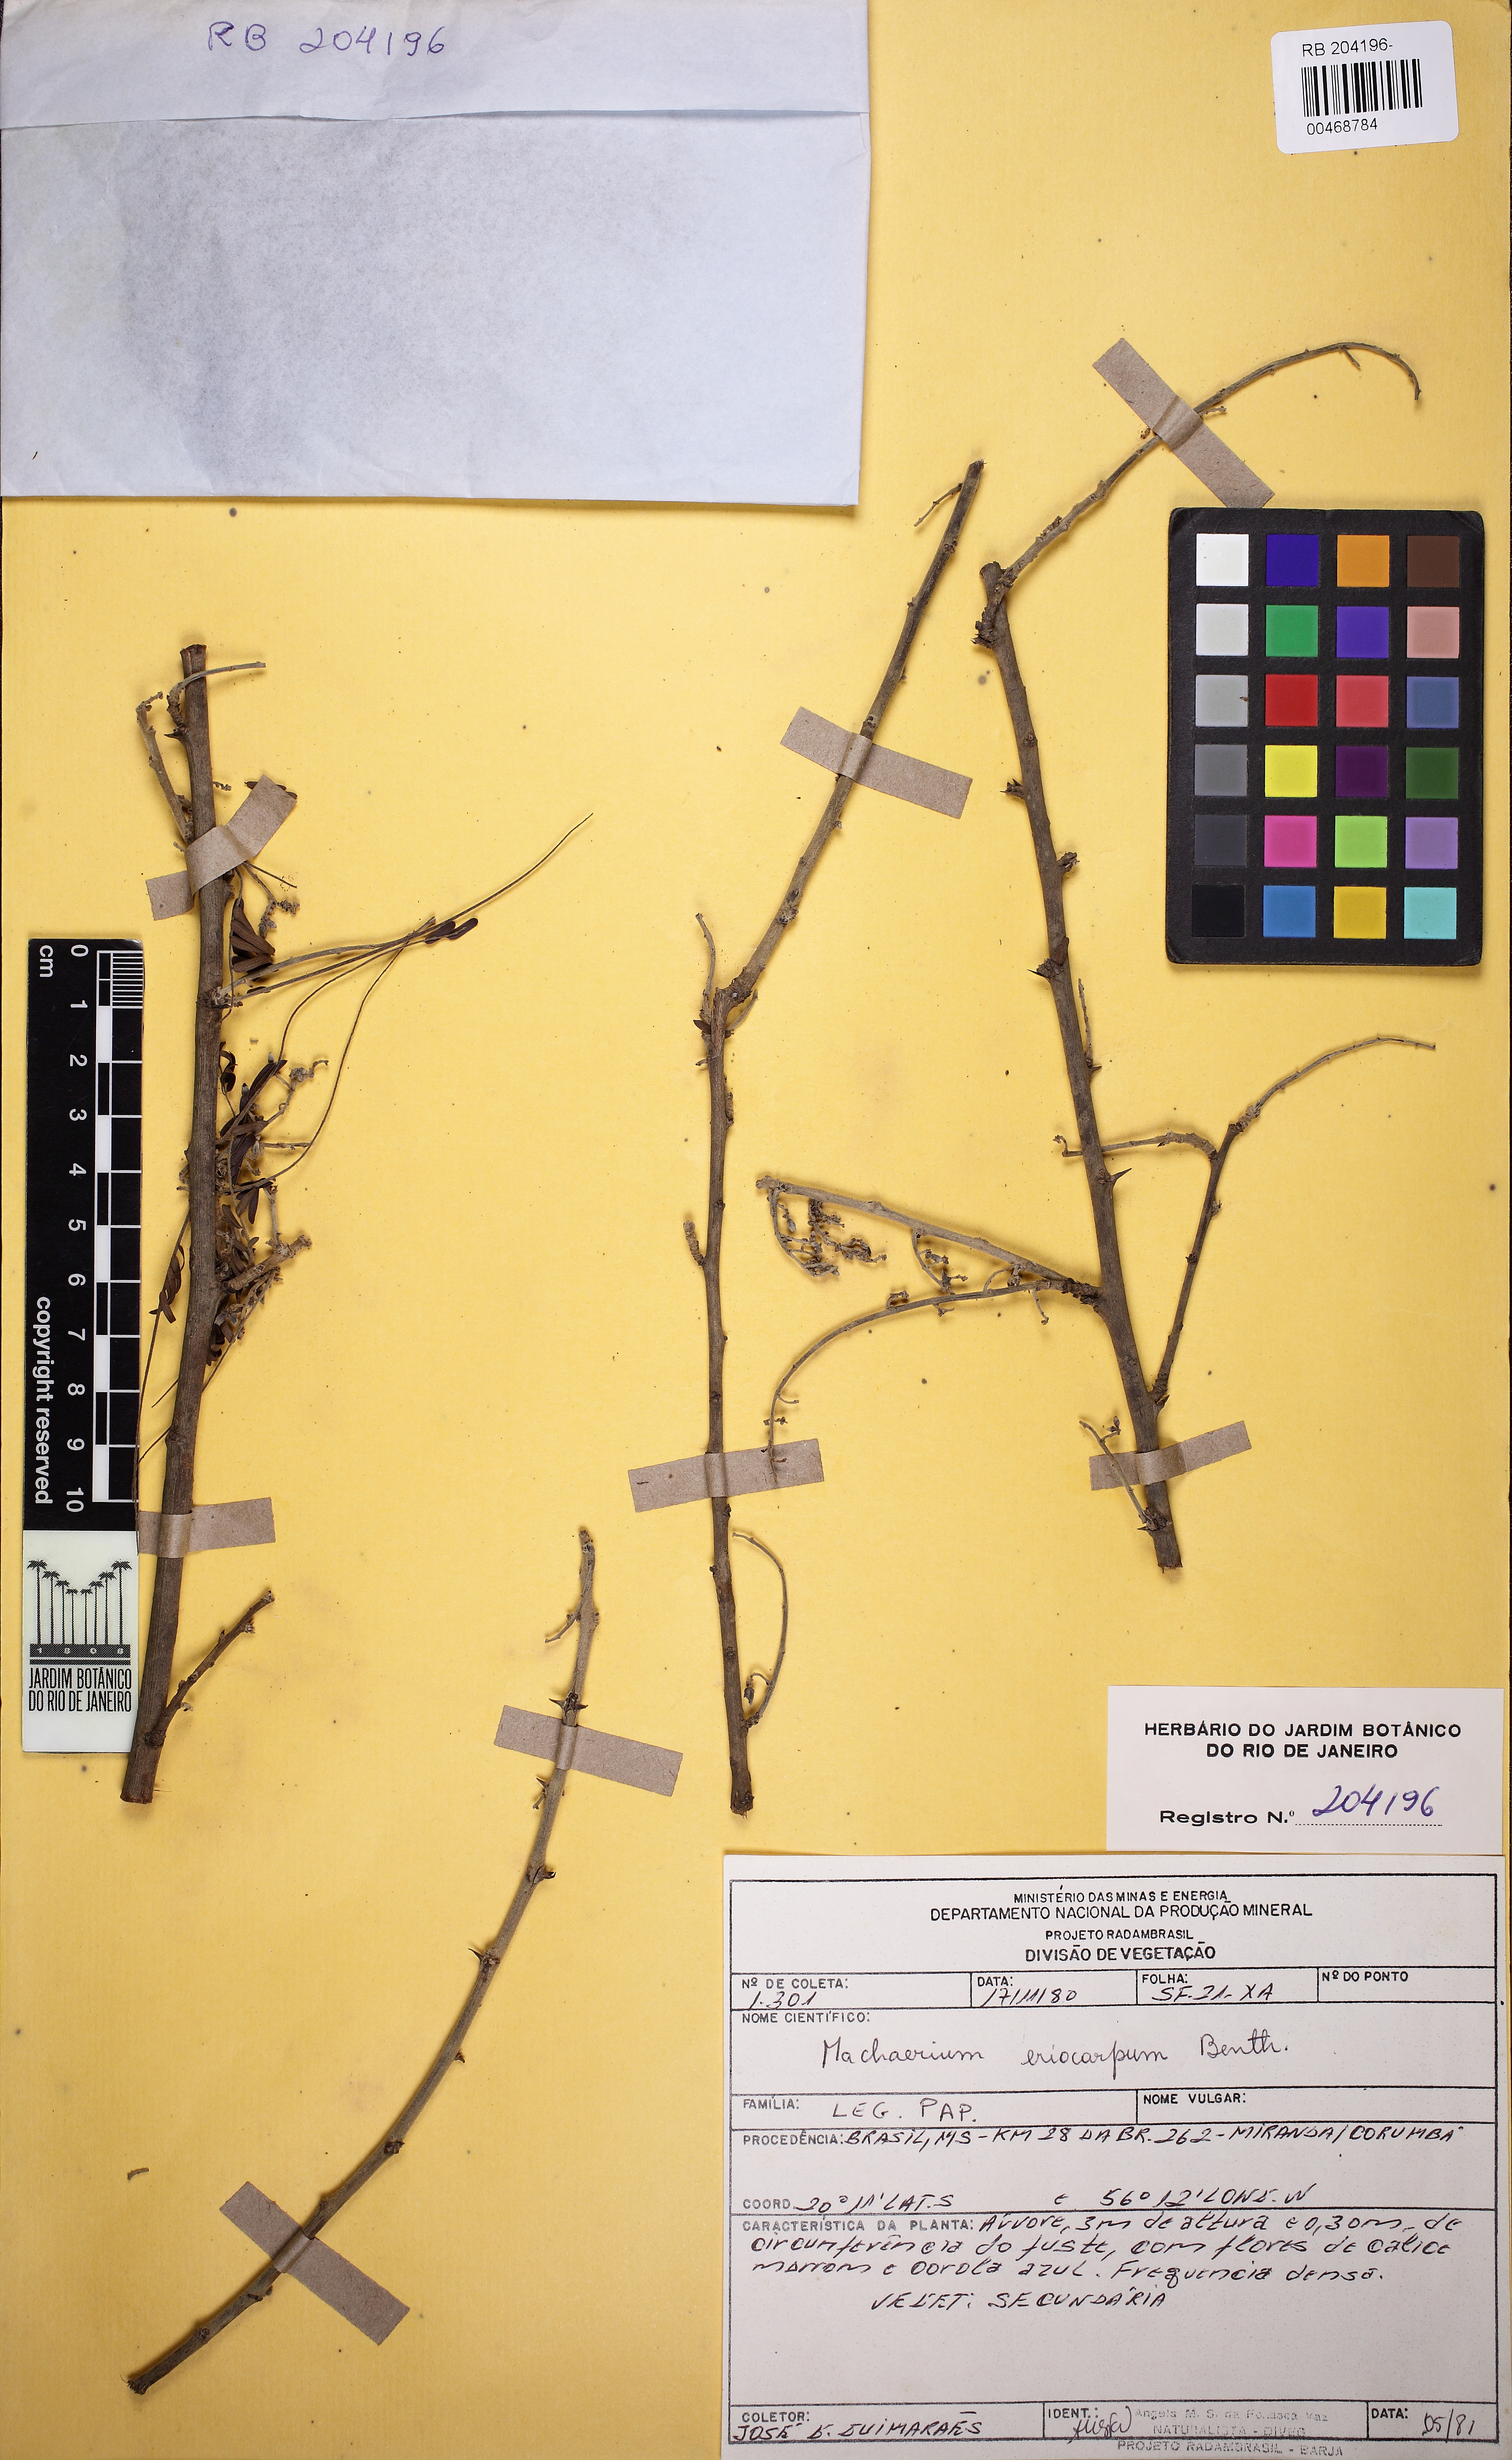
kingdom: Plantae
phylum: Tracheophyta
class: Magnoliopsida
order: Fabales
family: Fabaceae
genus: Machaerium
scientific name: Machaerium eriocarpum
